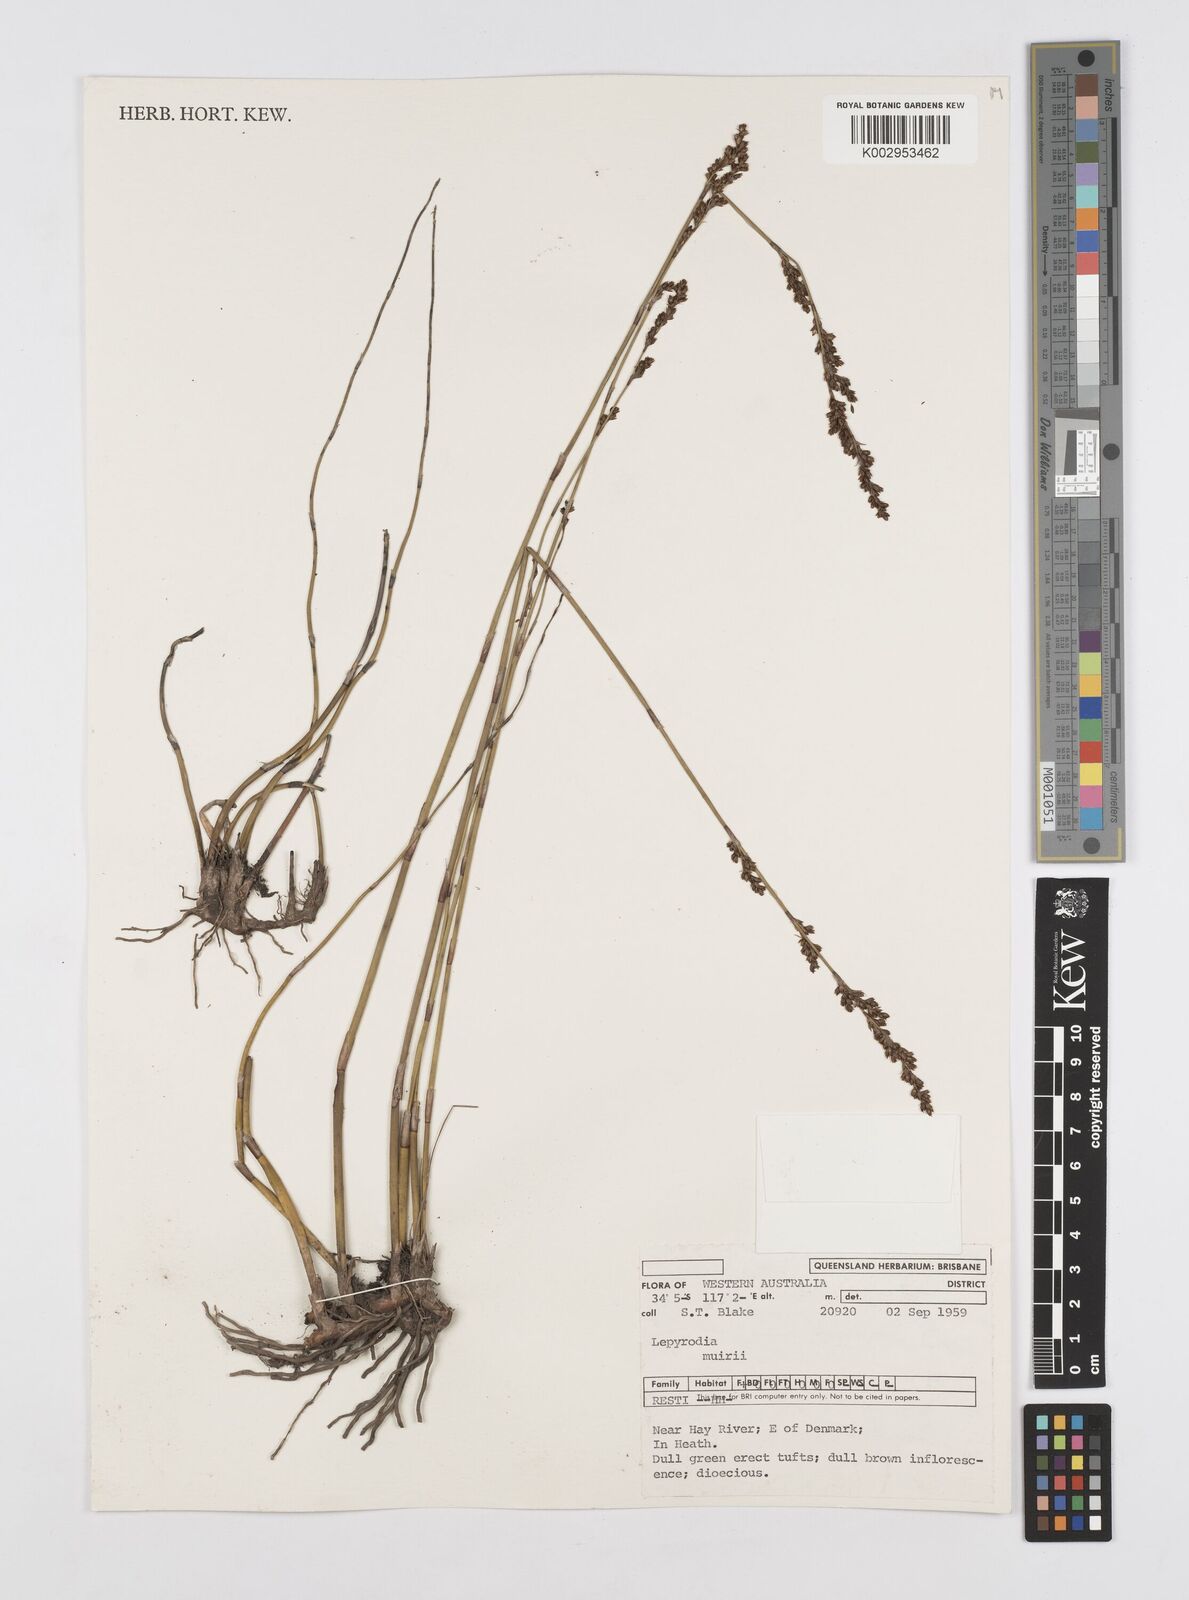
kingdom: Plantae
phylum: Tracheophyta
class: Liliopsida
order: Poales
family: Restionaceae
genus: Lepyrodia
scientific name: Lepyrodia muirii
